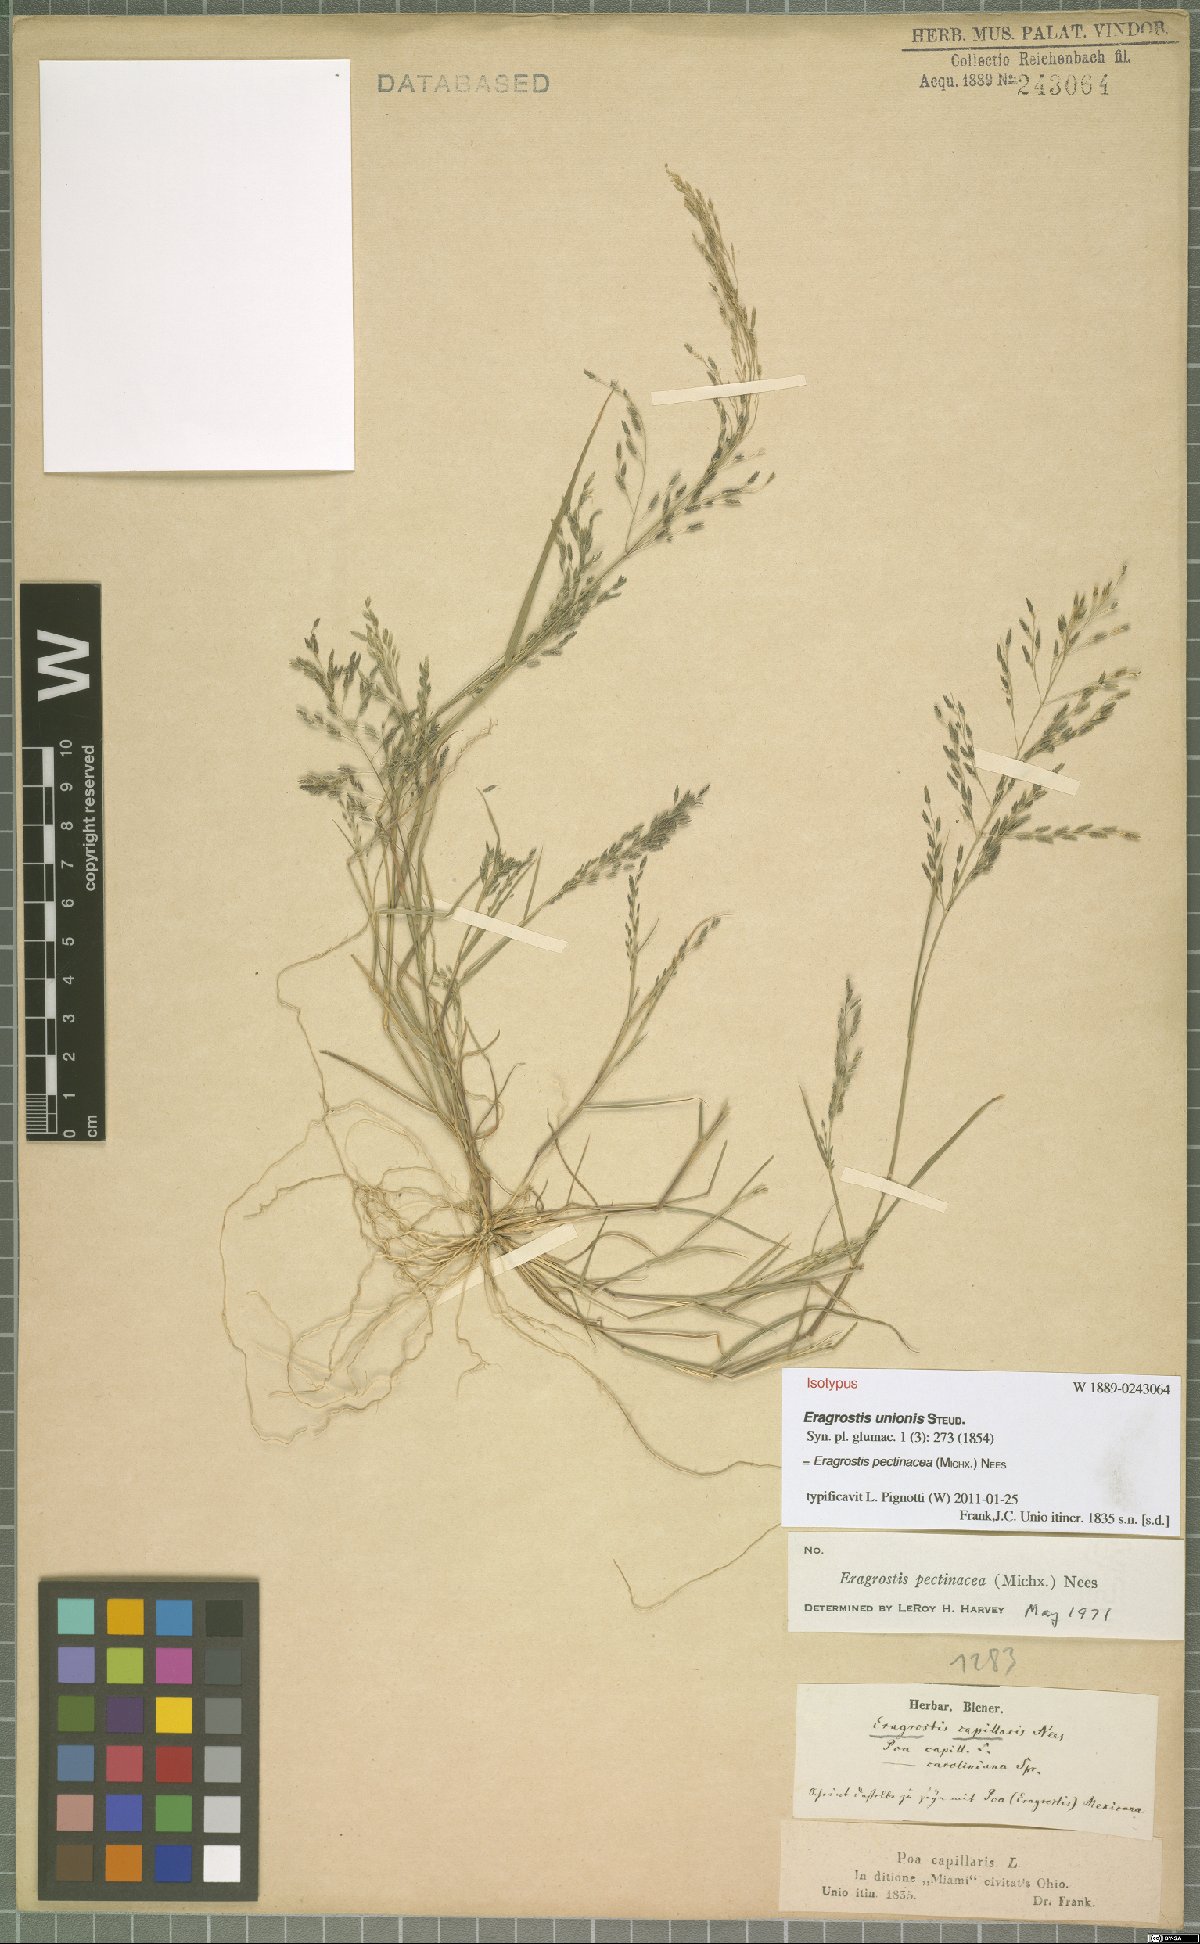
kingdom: Plantae
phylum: Tracheophyta
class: Liliopsida
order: Poales
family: Poaceae
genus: Eragrostis
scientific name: Eragrostis pectinacea
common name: Tufted lovegrass
